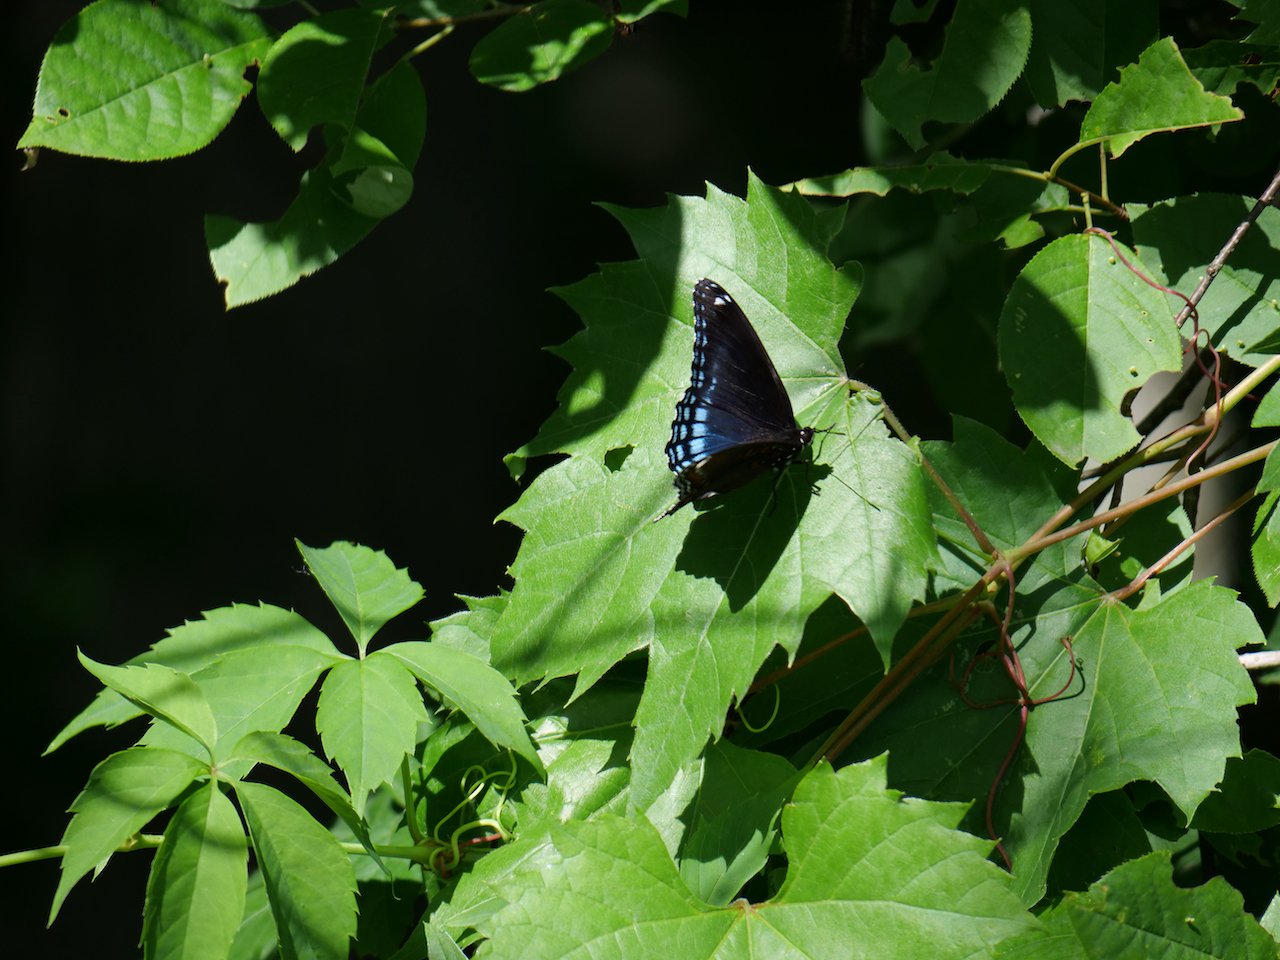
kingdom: Animalia
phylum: Arthropoda
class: Insecta
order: Lepidoptera
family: Nymphalidae
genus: Limenitis
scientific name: Limenitis astyanax
